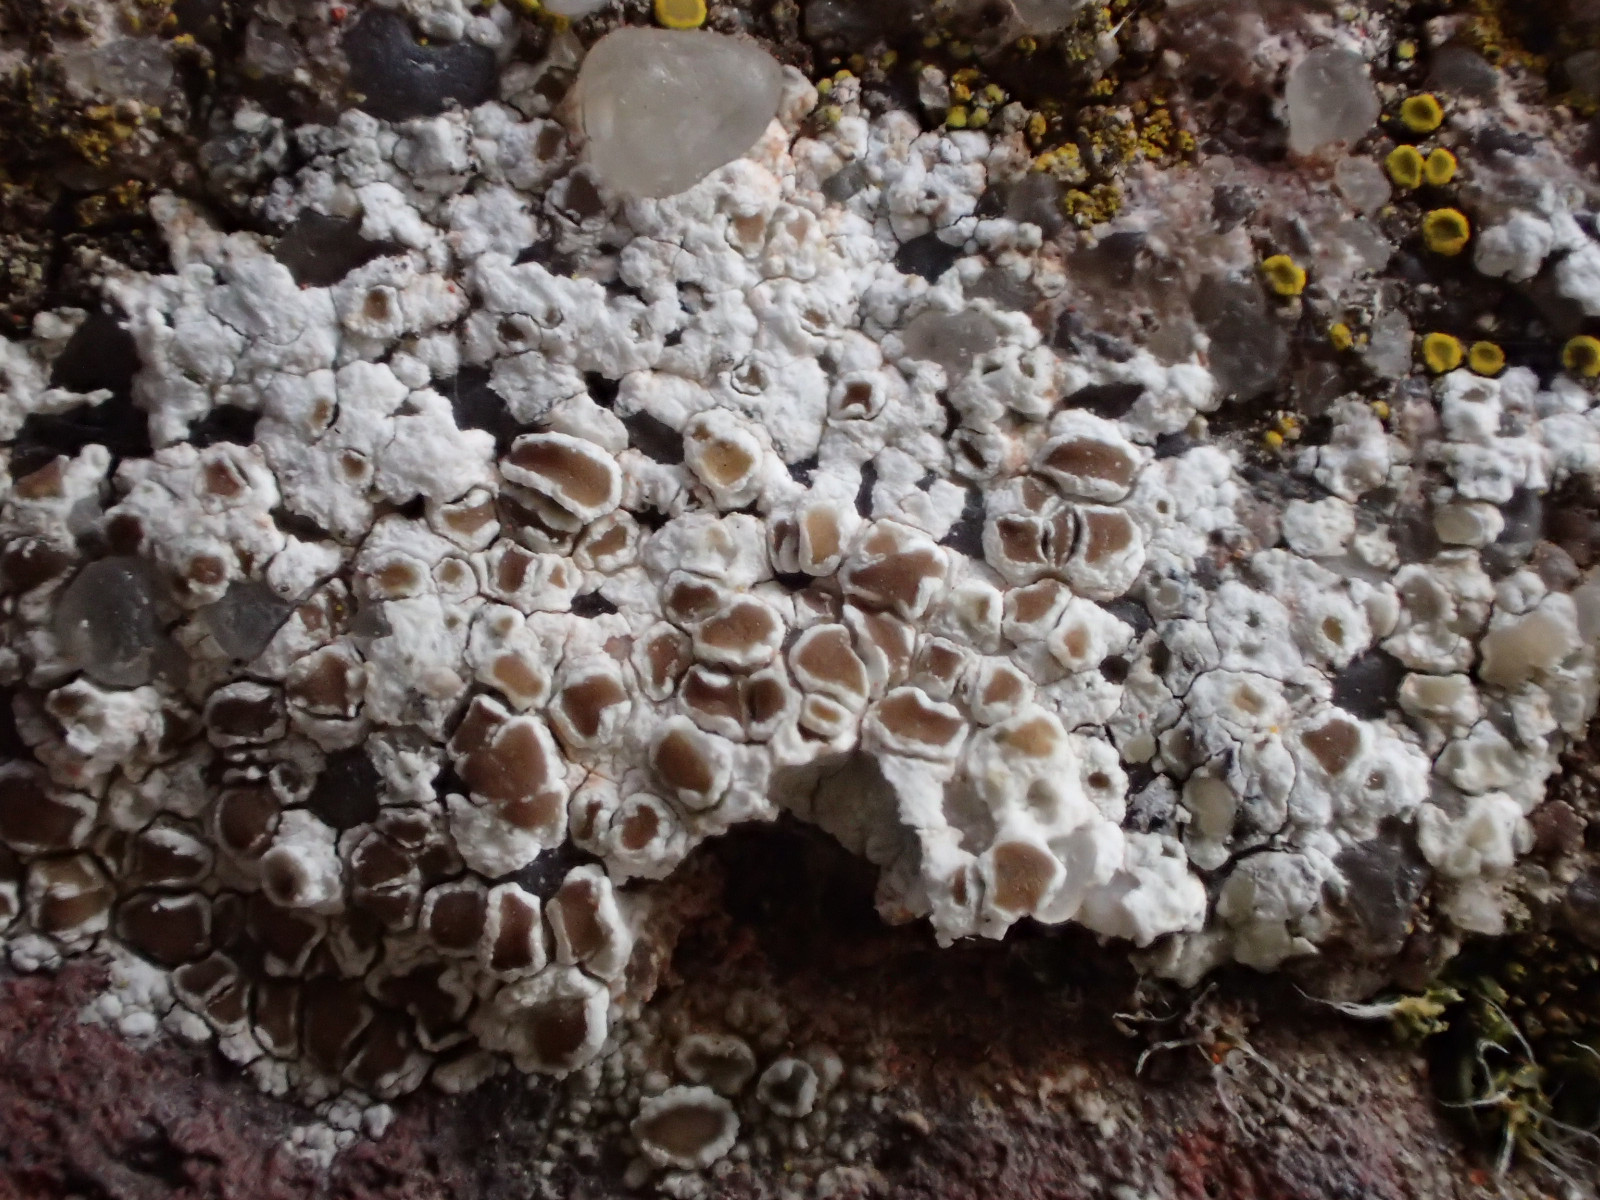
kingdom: Fungi
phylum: Ascomycota
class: Lecanoromycetes
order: Lecanorales
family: Lecanoraceae
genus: Polyozosia
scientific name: Polyozosia albescens
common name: cement-kantskivelav
